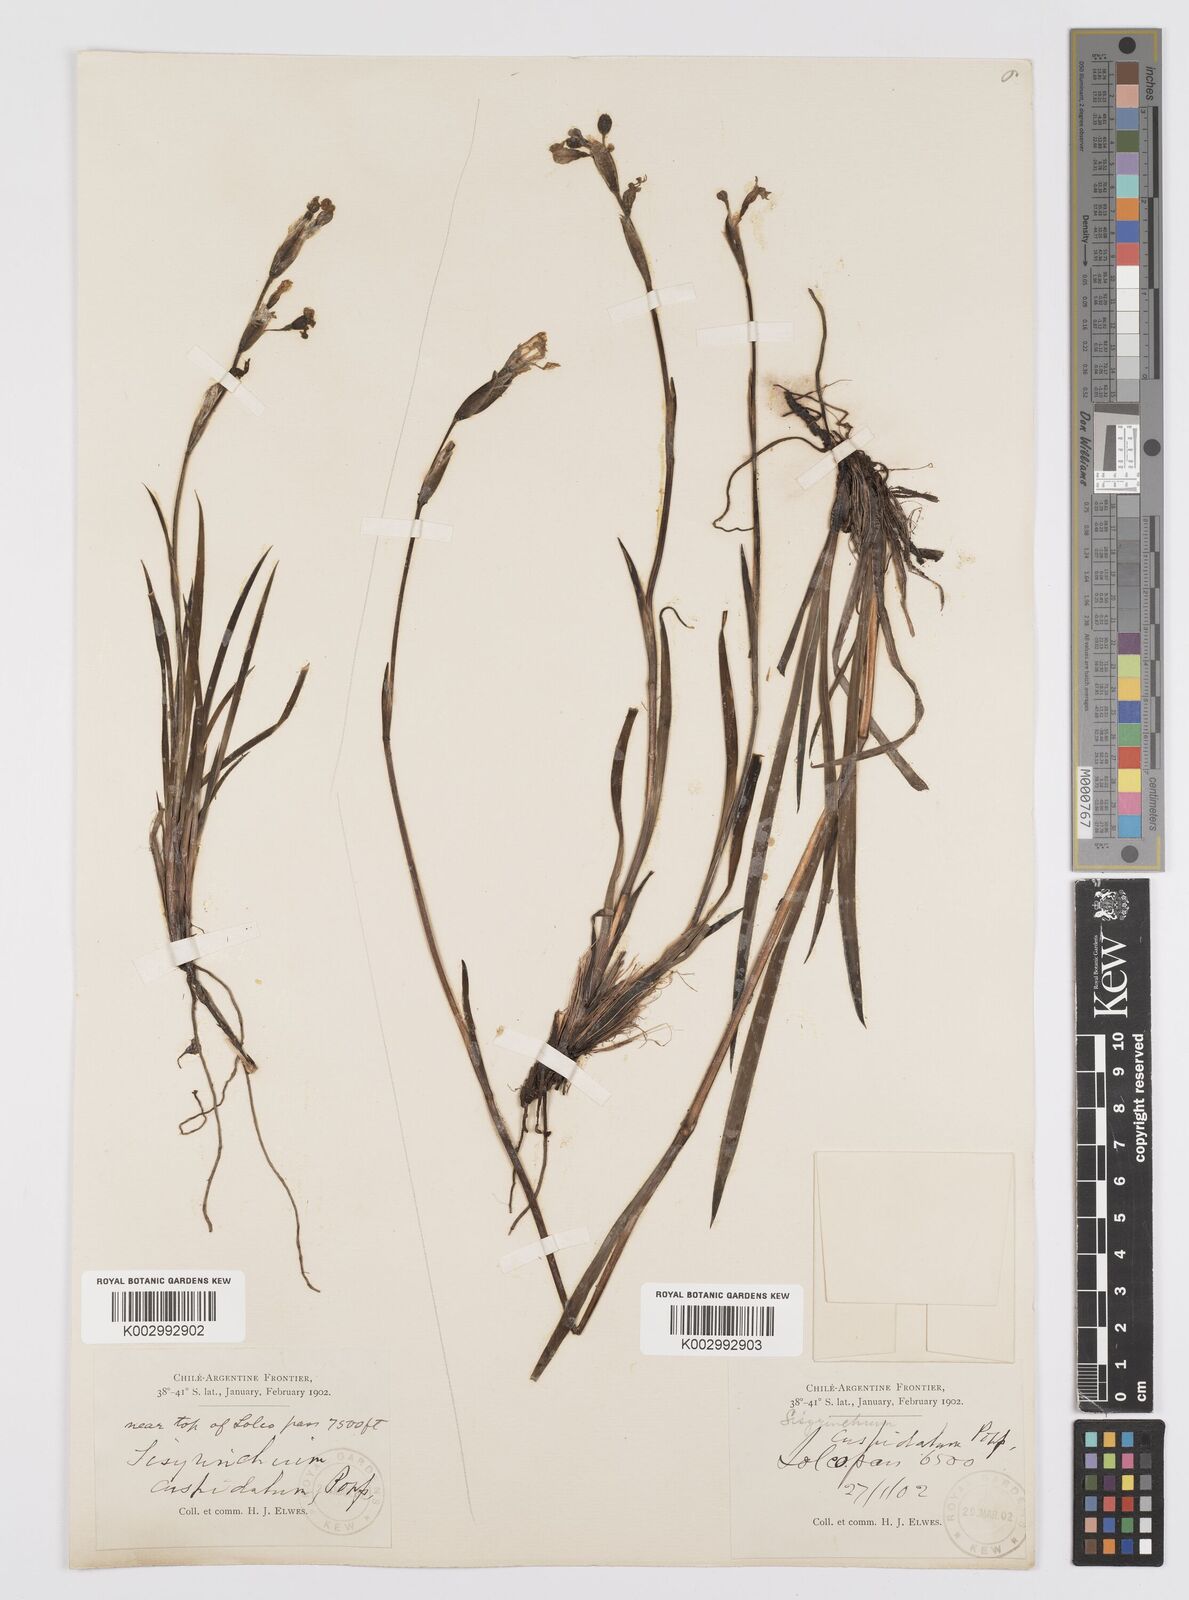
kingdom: Plantae
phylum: Tracheophyta
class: Liliopsida
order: Asparagales
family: Iridaceae
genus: Sisyrinchium
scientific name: Sisyrinchium cuspidatum
